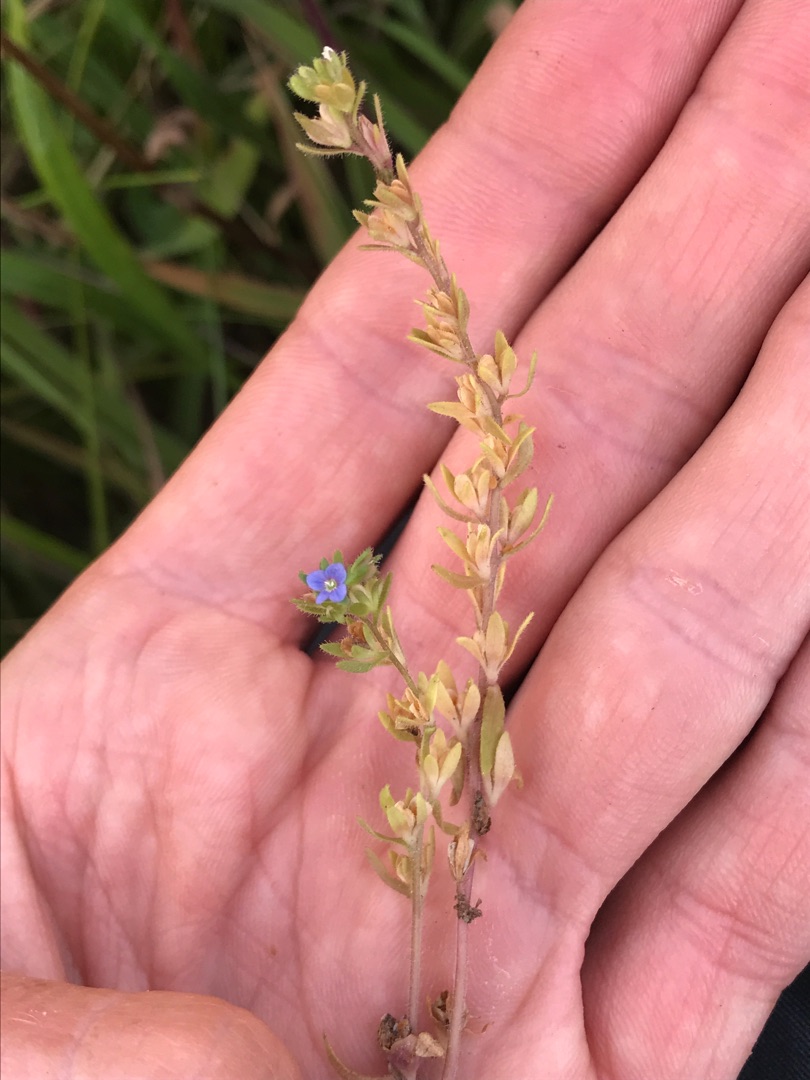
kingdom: Plantae
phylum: Tracheophyta
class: Magnoliopsida
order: Lamiales
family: Plantaginaceae
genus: Veronica
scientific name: Veronica verna
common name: Vår-ærenpris
